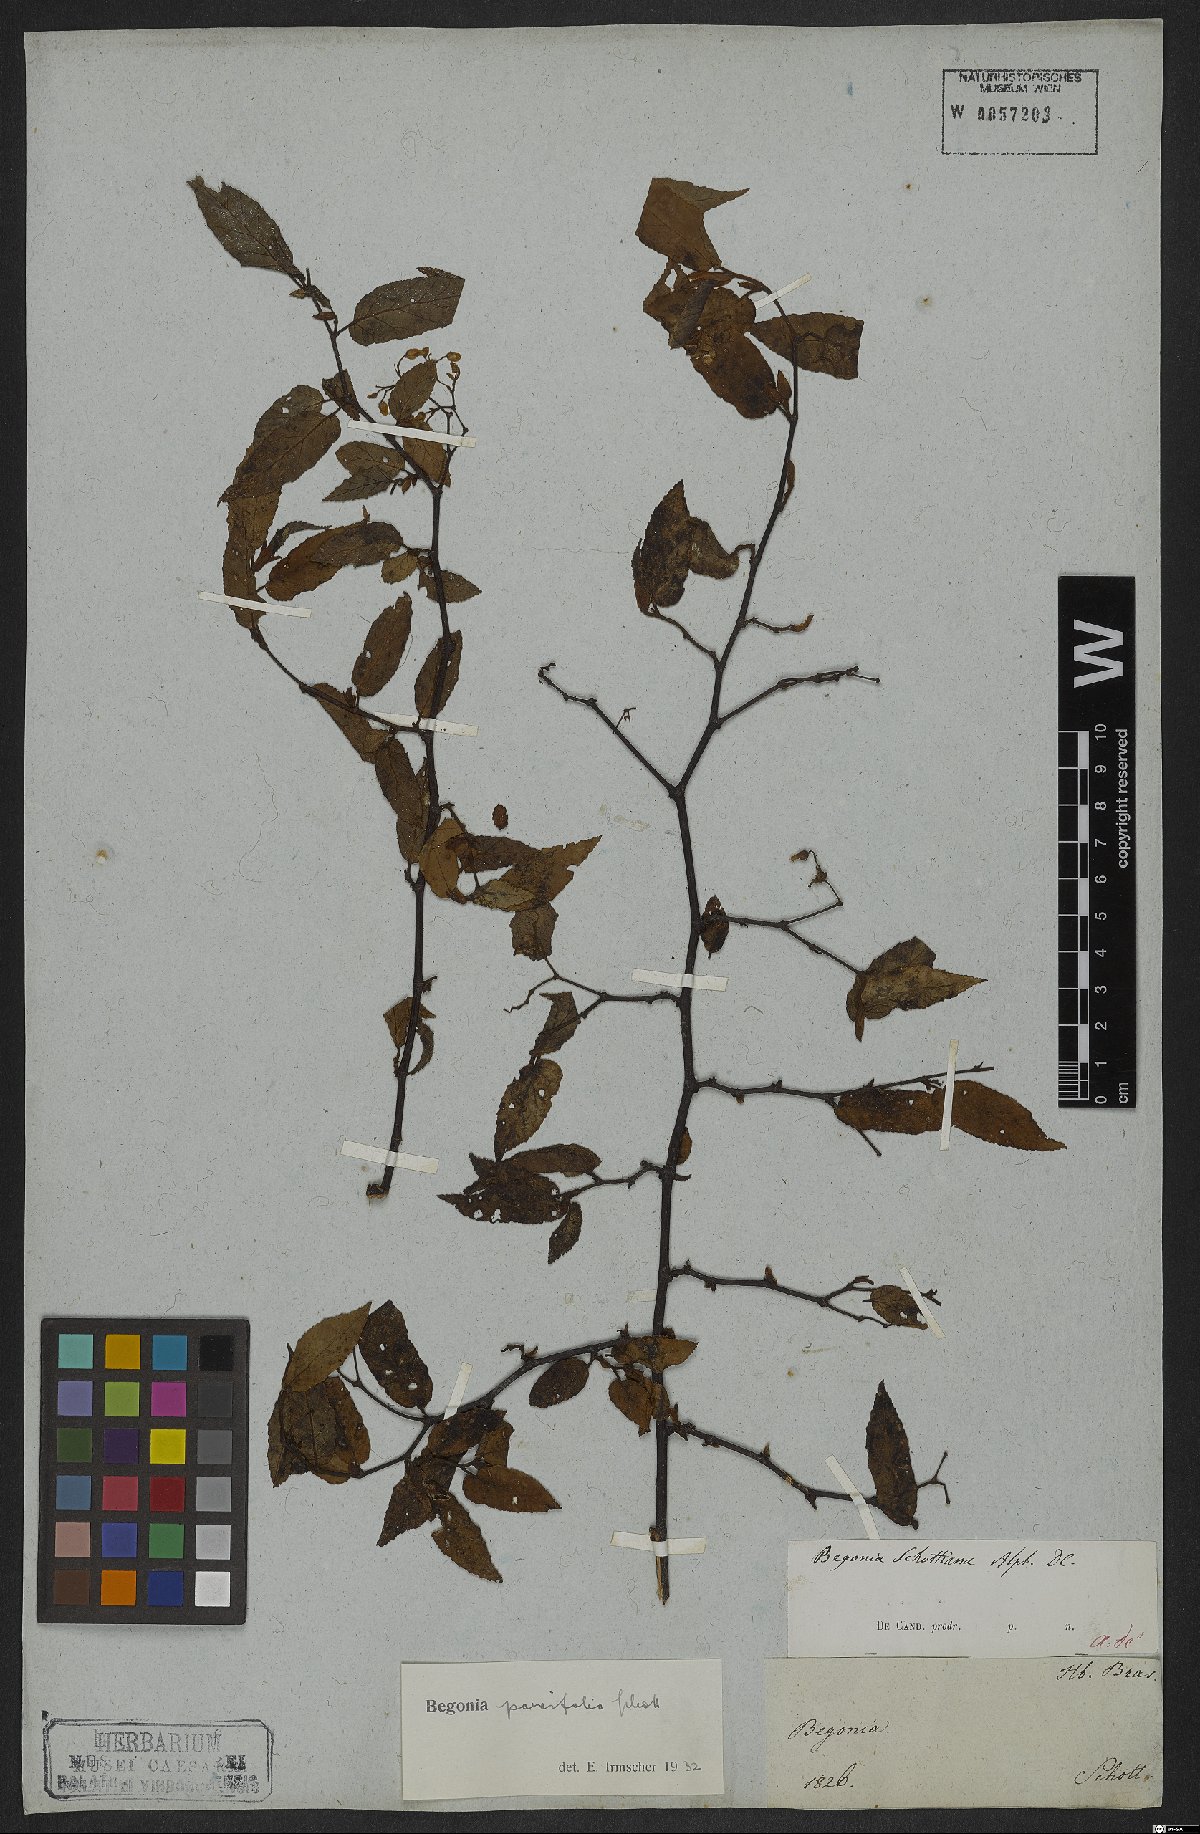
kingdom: Plantae
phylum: Tracheophyta
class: Magnoliopsida
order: Cucurbitales
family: Begoniaceae
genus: Begonia
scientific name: Begonia parvifolia
